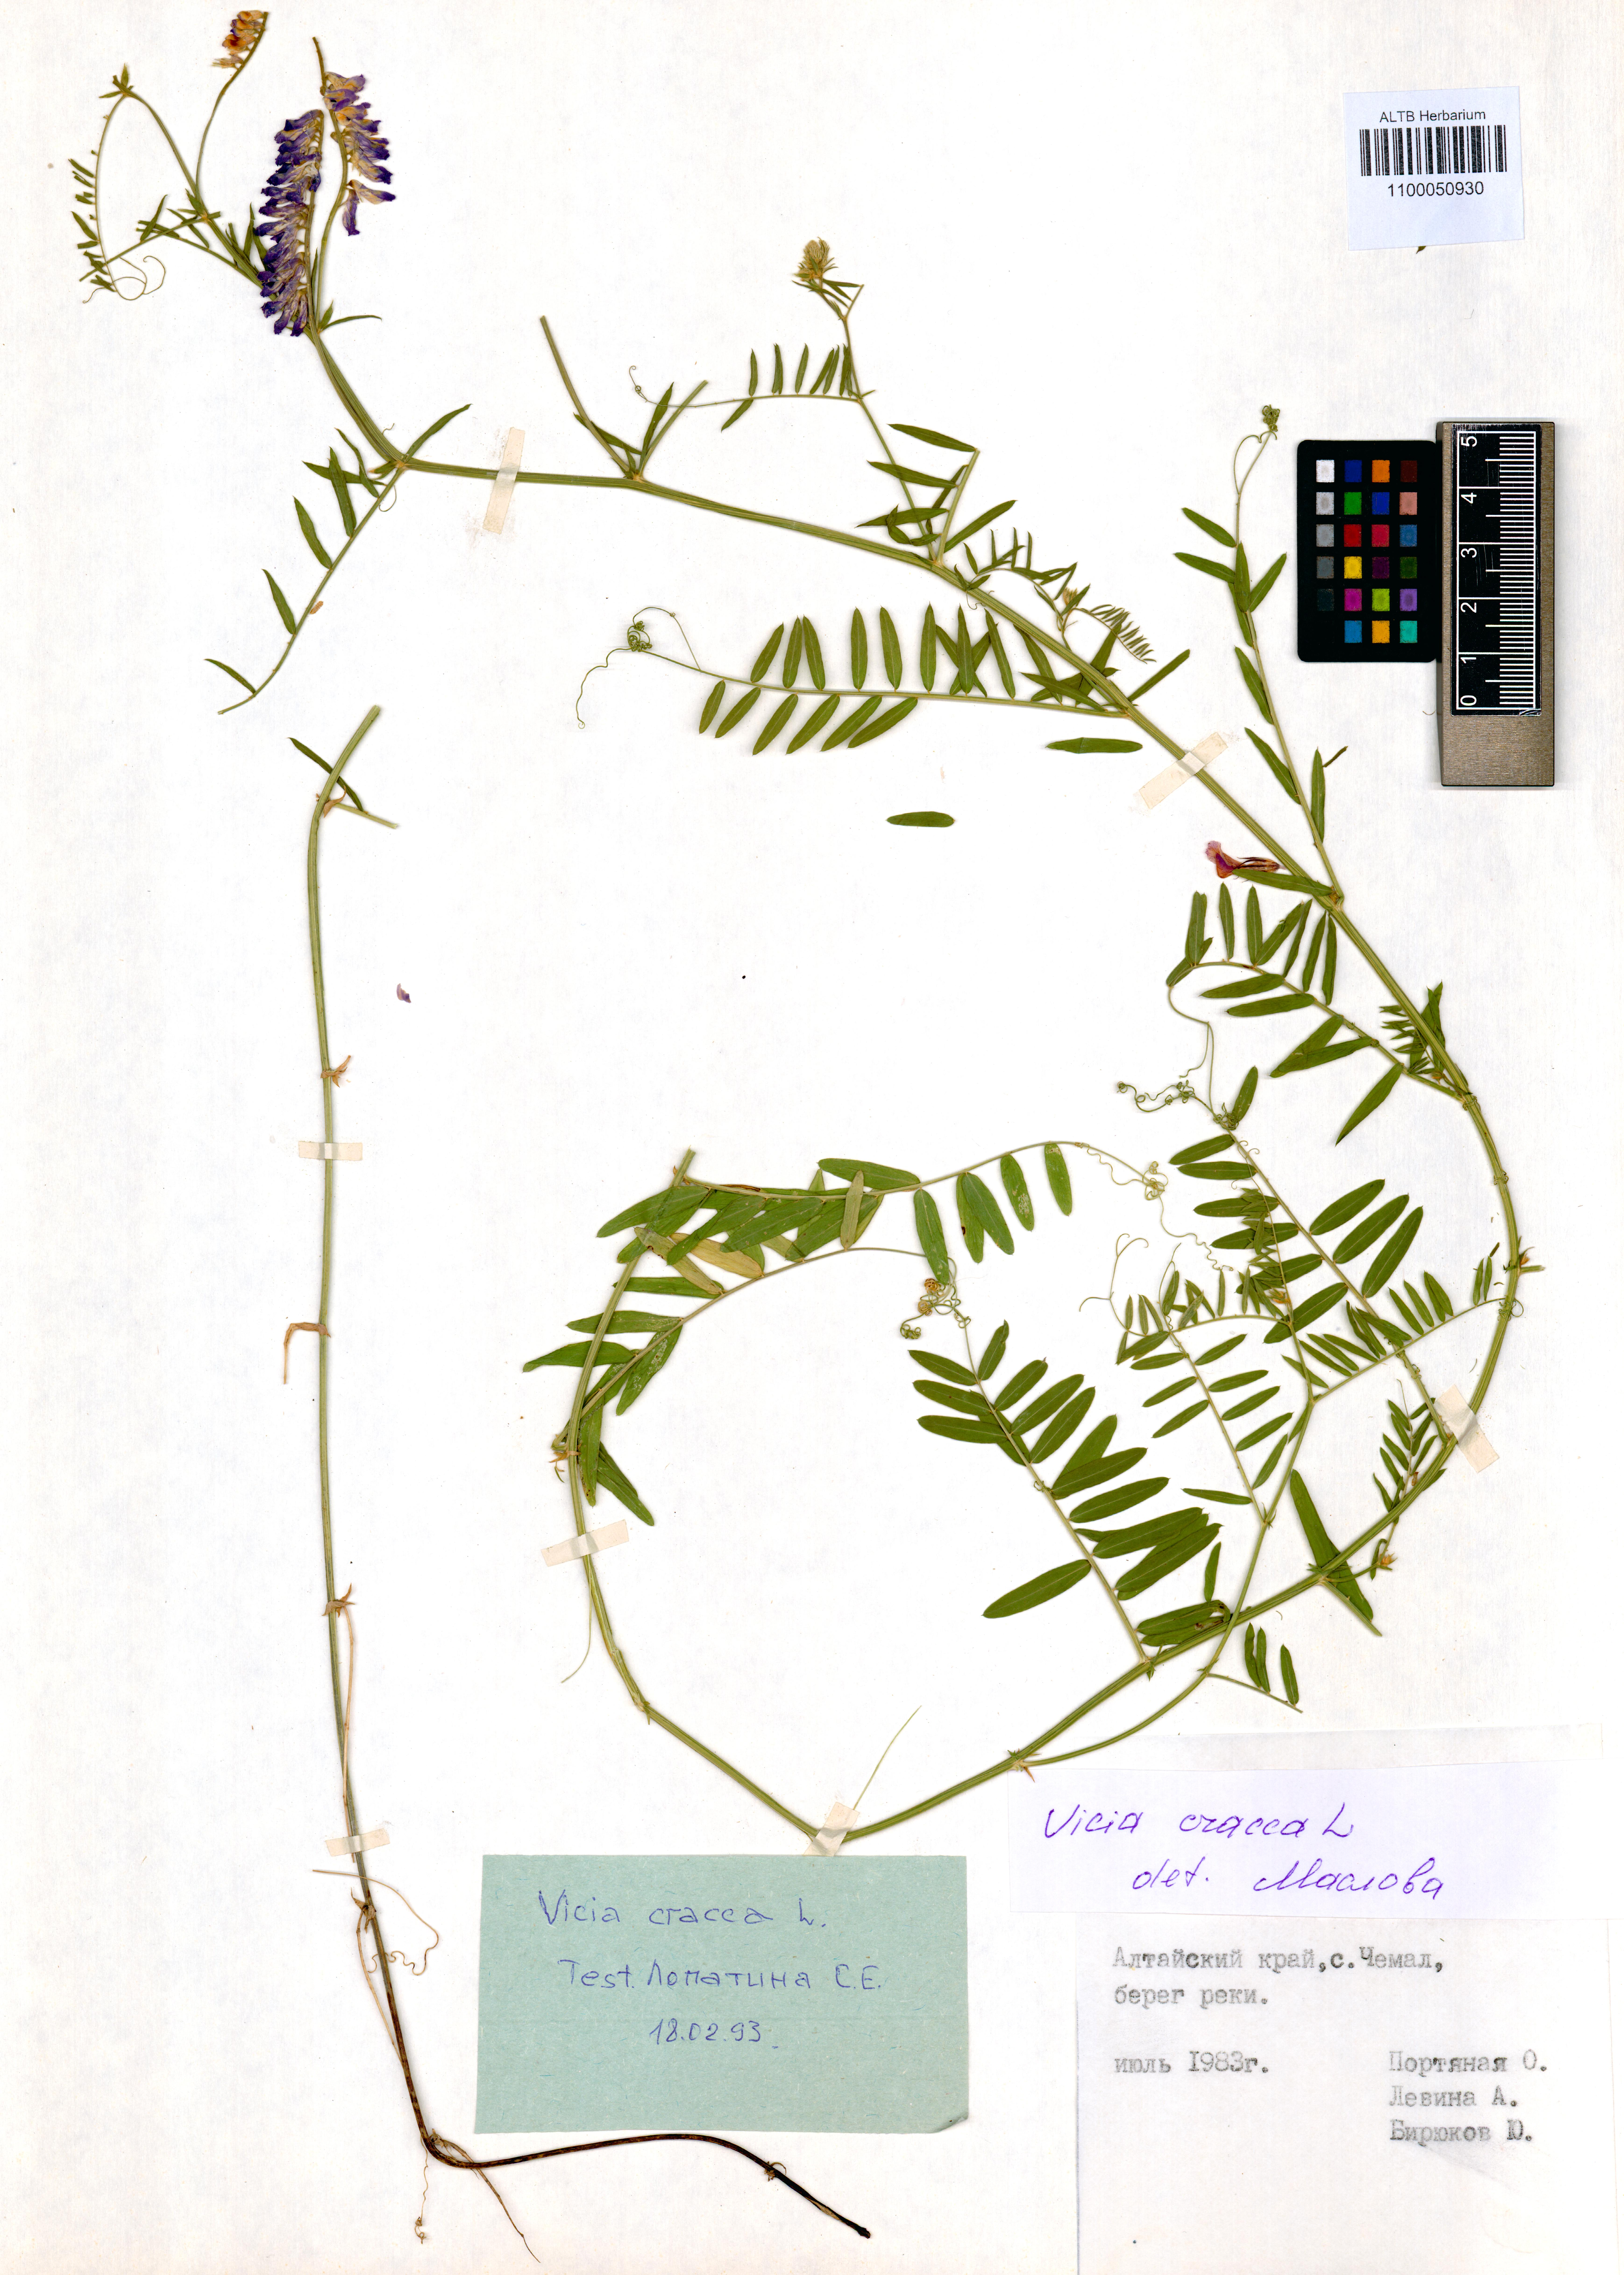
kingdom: Plantae
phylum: Tracheophyta
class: Magnoliopsida
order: Fabales
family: Fabaceae
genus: Vicia
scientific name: Vicia cracca
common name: Bird vetch
